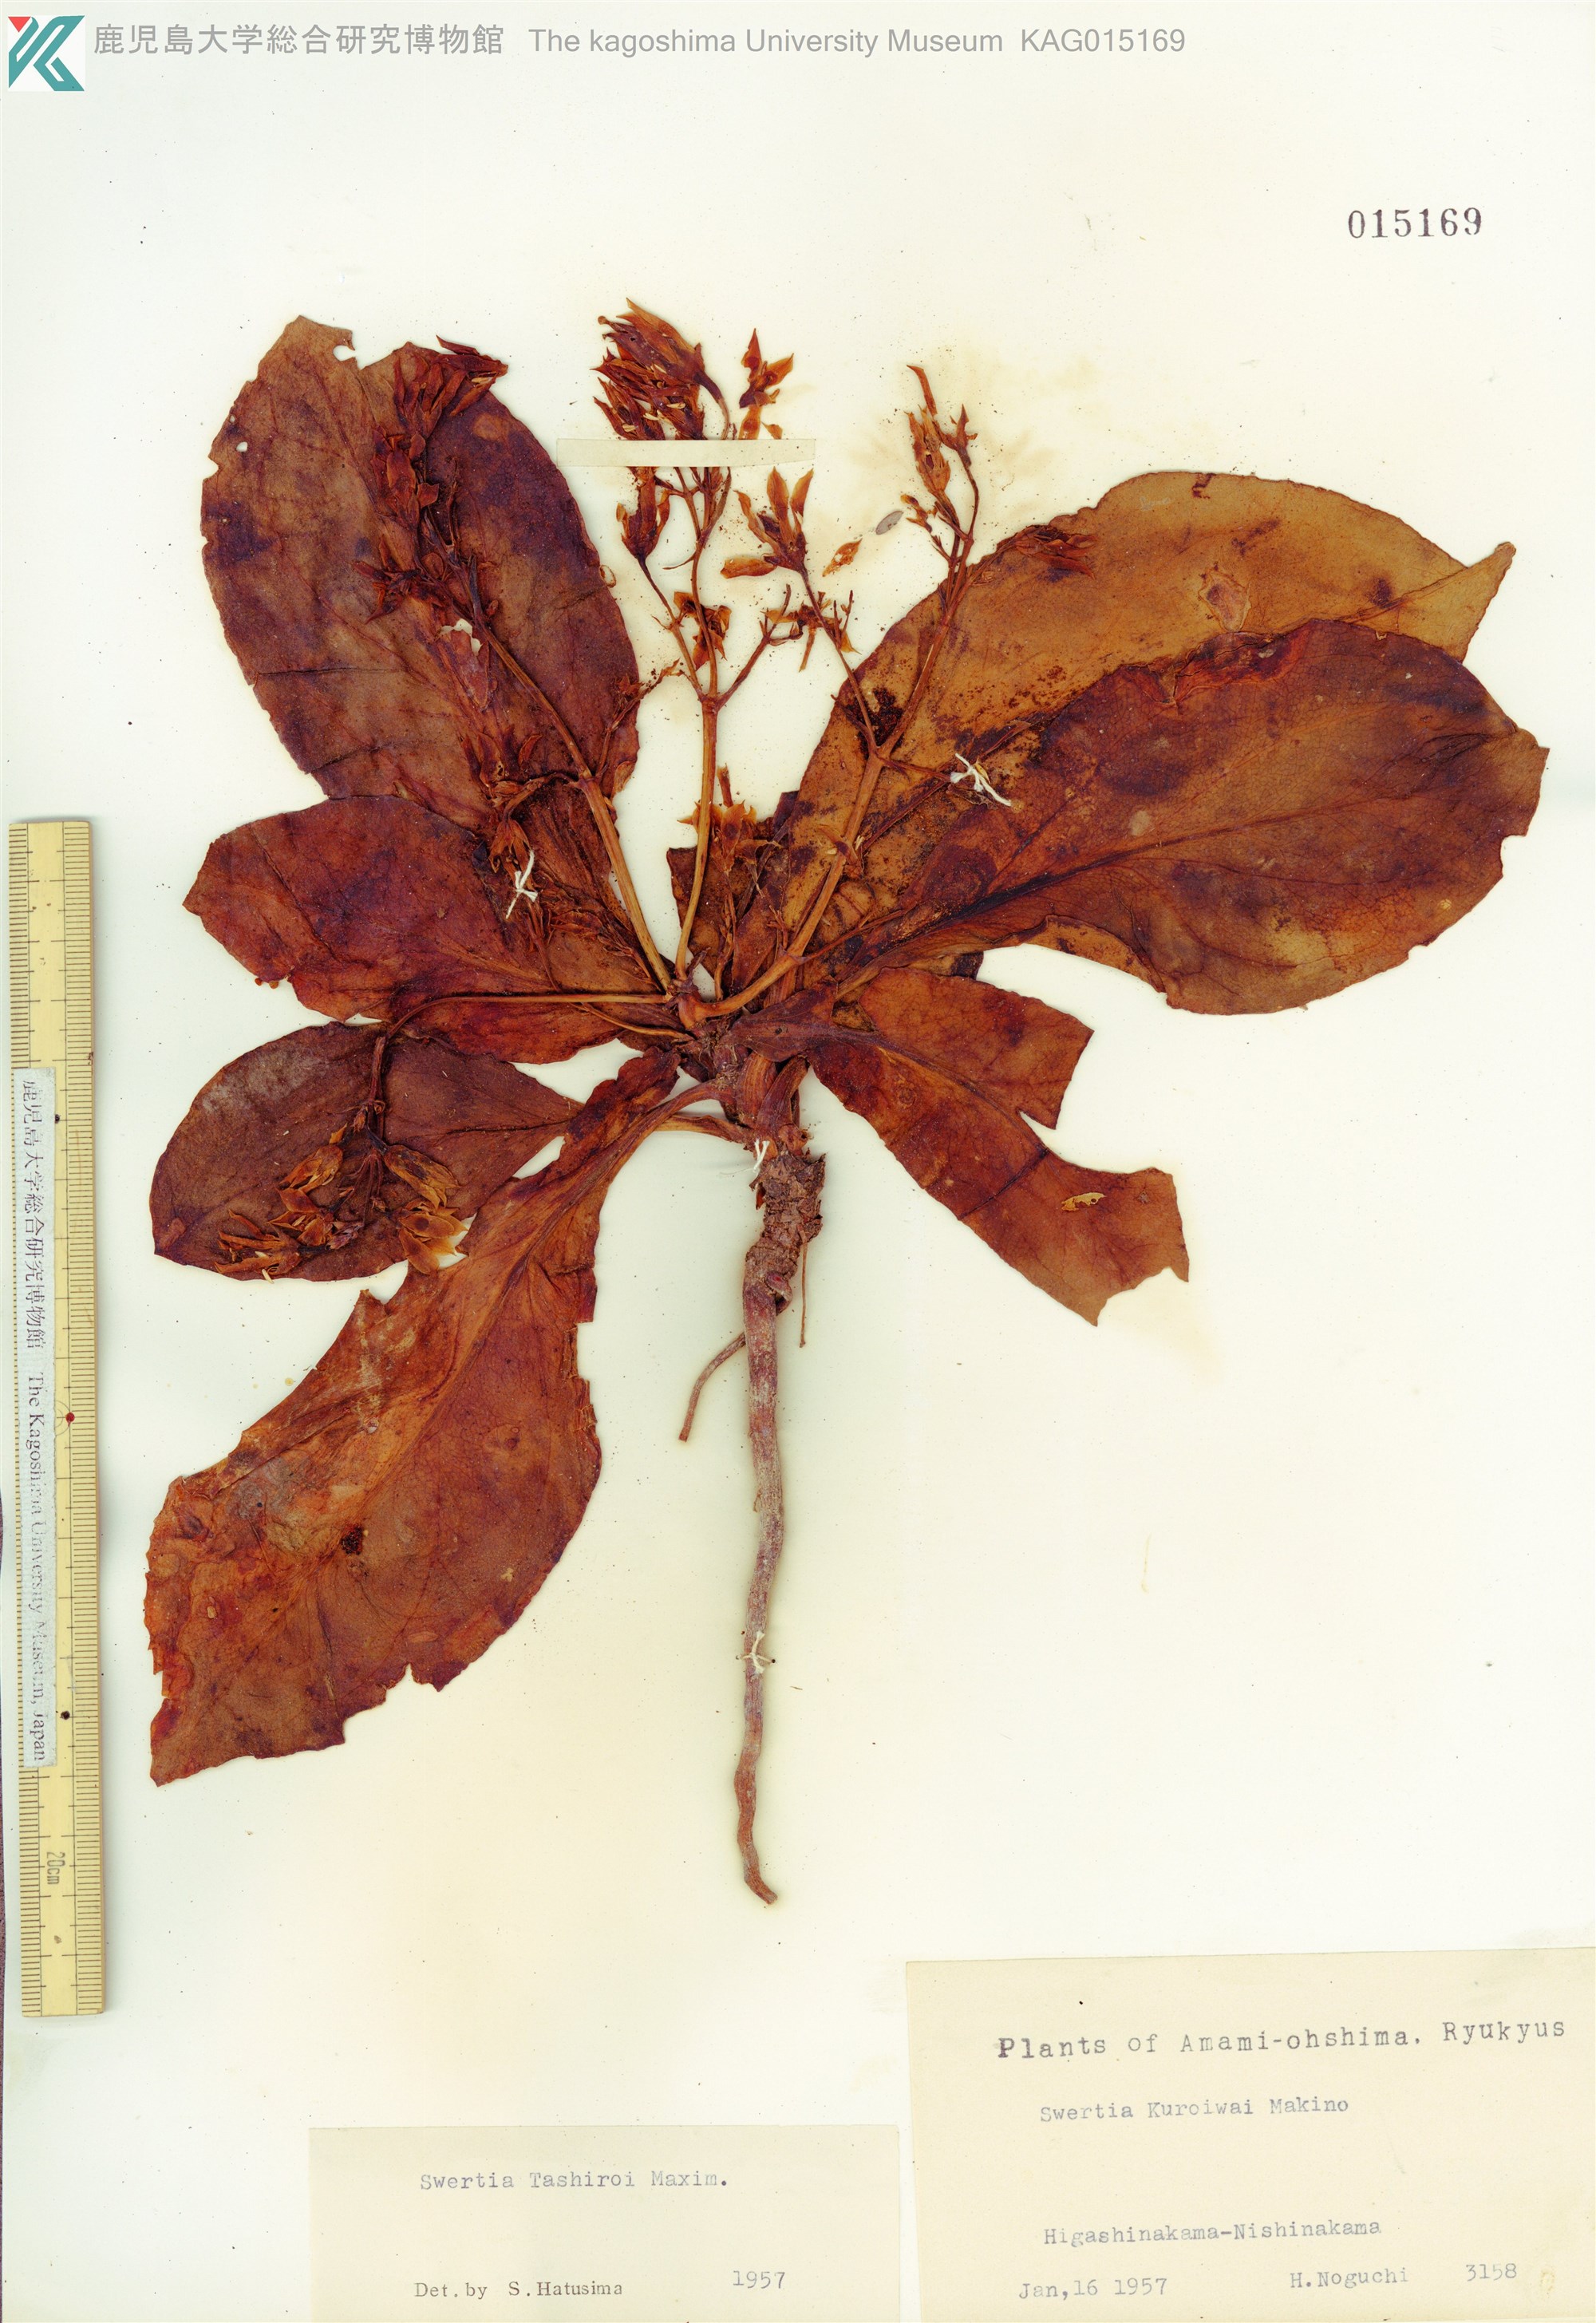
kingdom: Plantae
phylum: Tracheophyta
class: Magnoliopsida
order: Gentianales
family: Gentianaceae
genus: Swertia
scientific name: Swertia tashiroi
